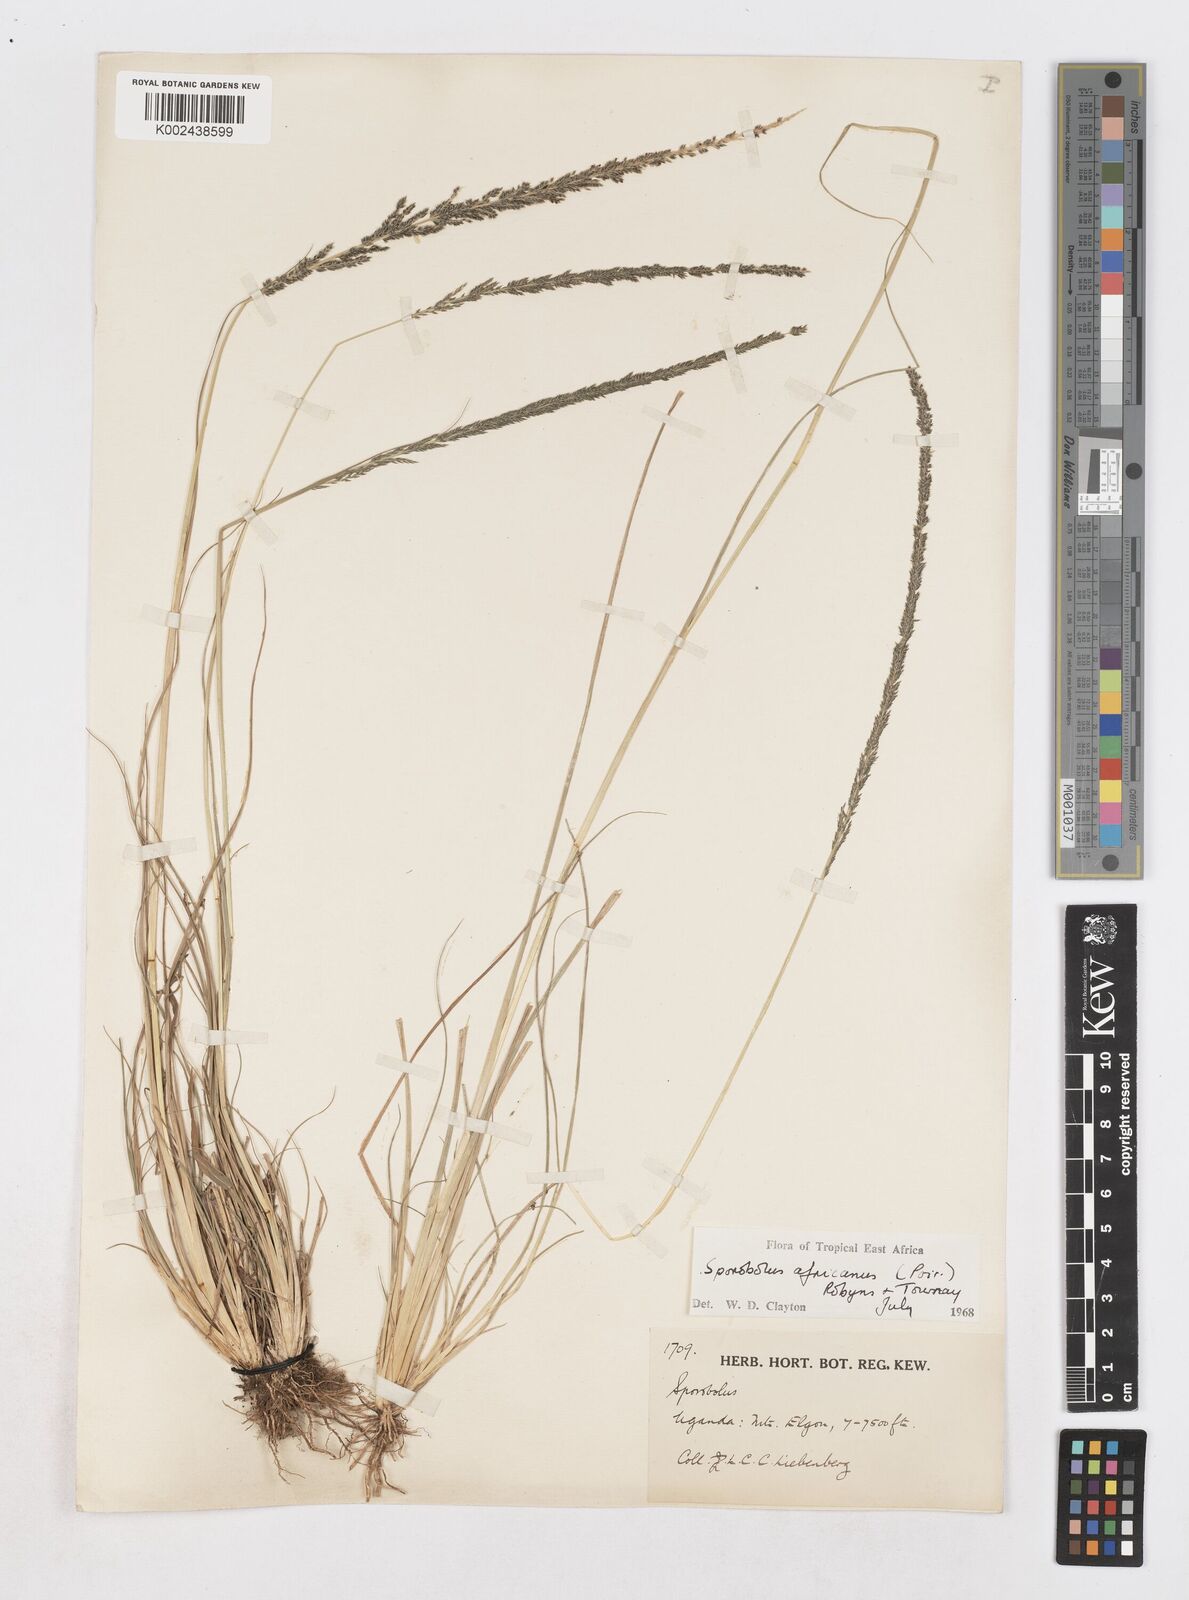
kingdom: Plantae
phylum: Tracheophyta
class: Liliopsida
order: Poales
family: Poaceae
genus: Sporobolus
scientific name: Sporobolus africanus
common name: African dropseed
